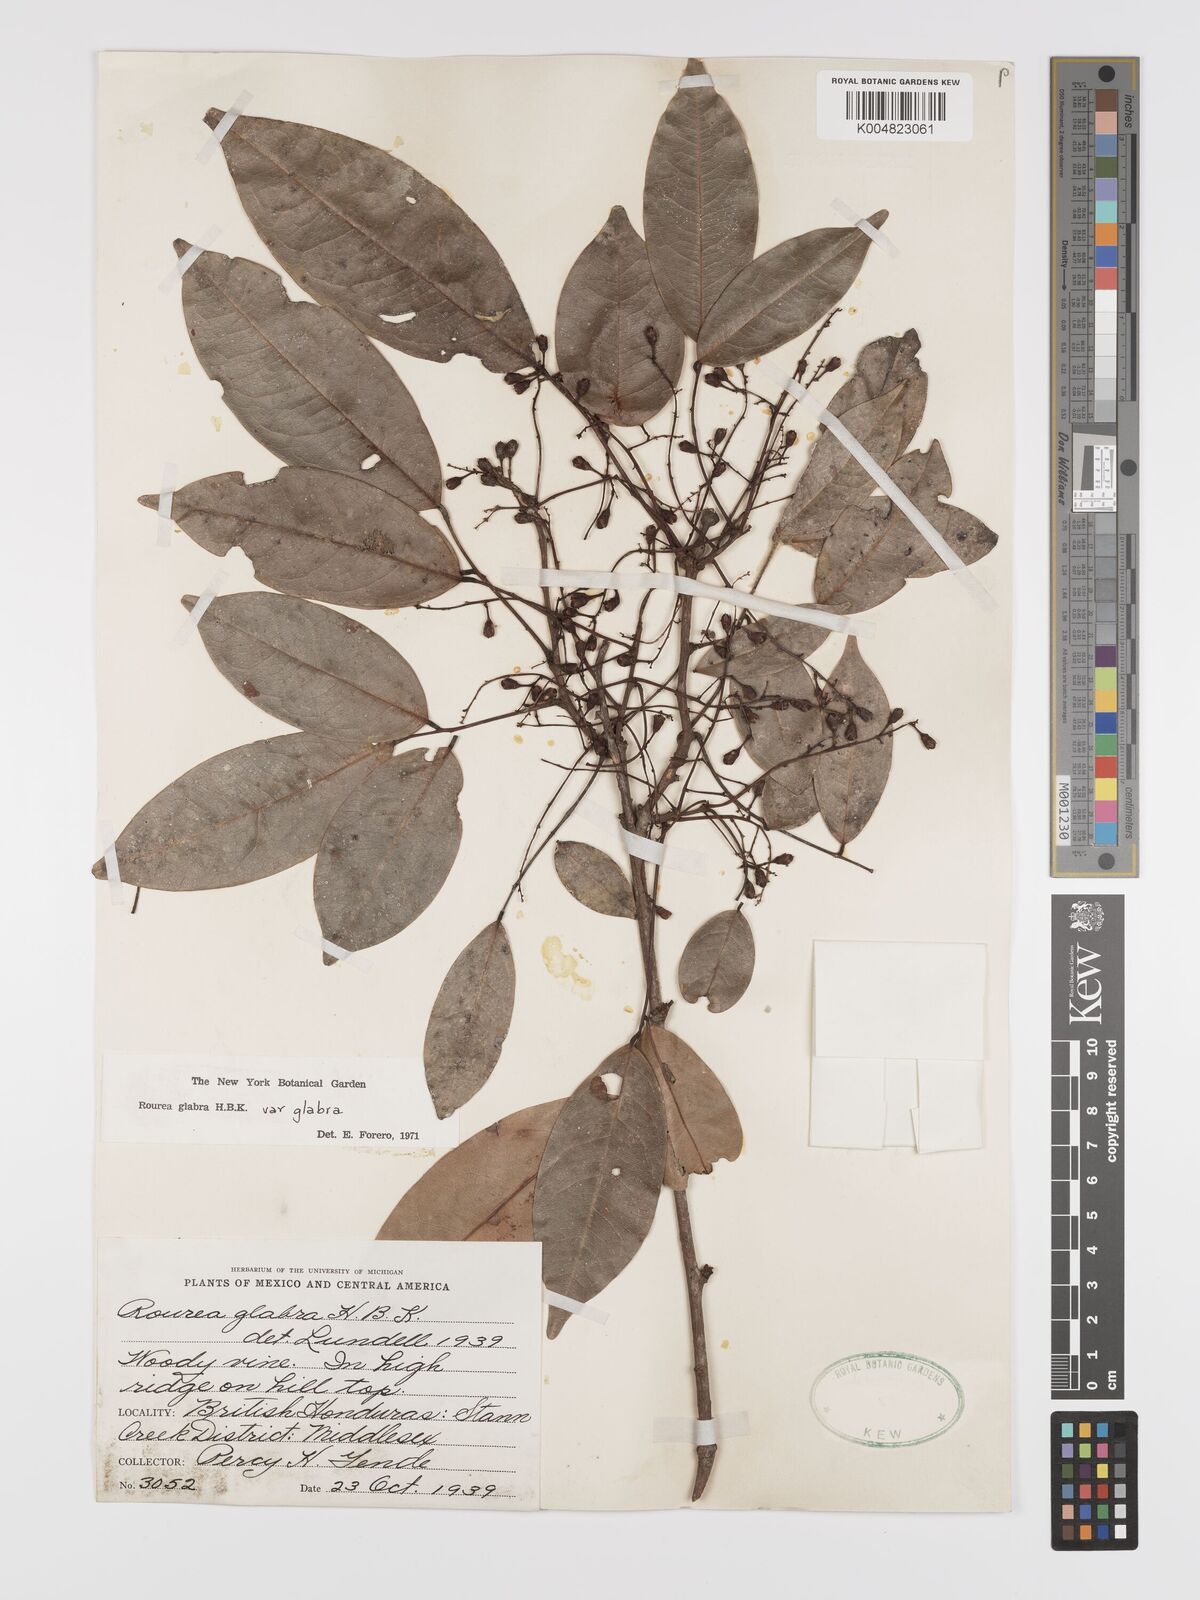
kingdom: Plantae
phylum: Tracheophyta
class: Magnoliopsida
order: Oxalidales
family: Connaraceae
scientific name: Connaraceae
